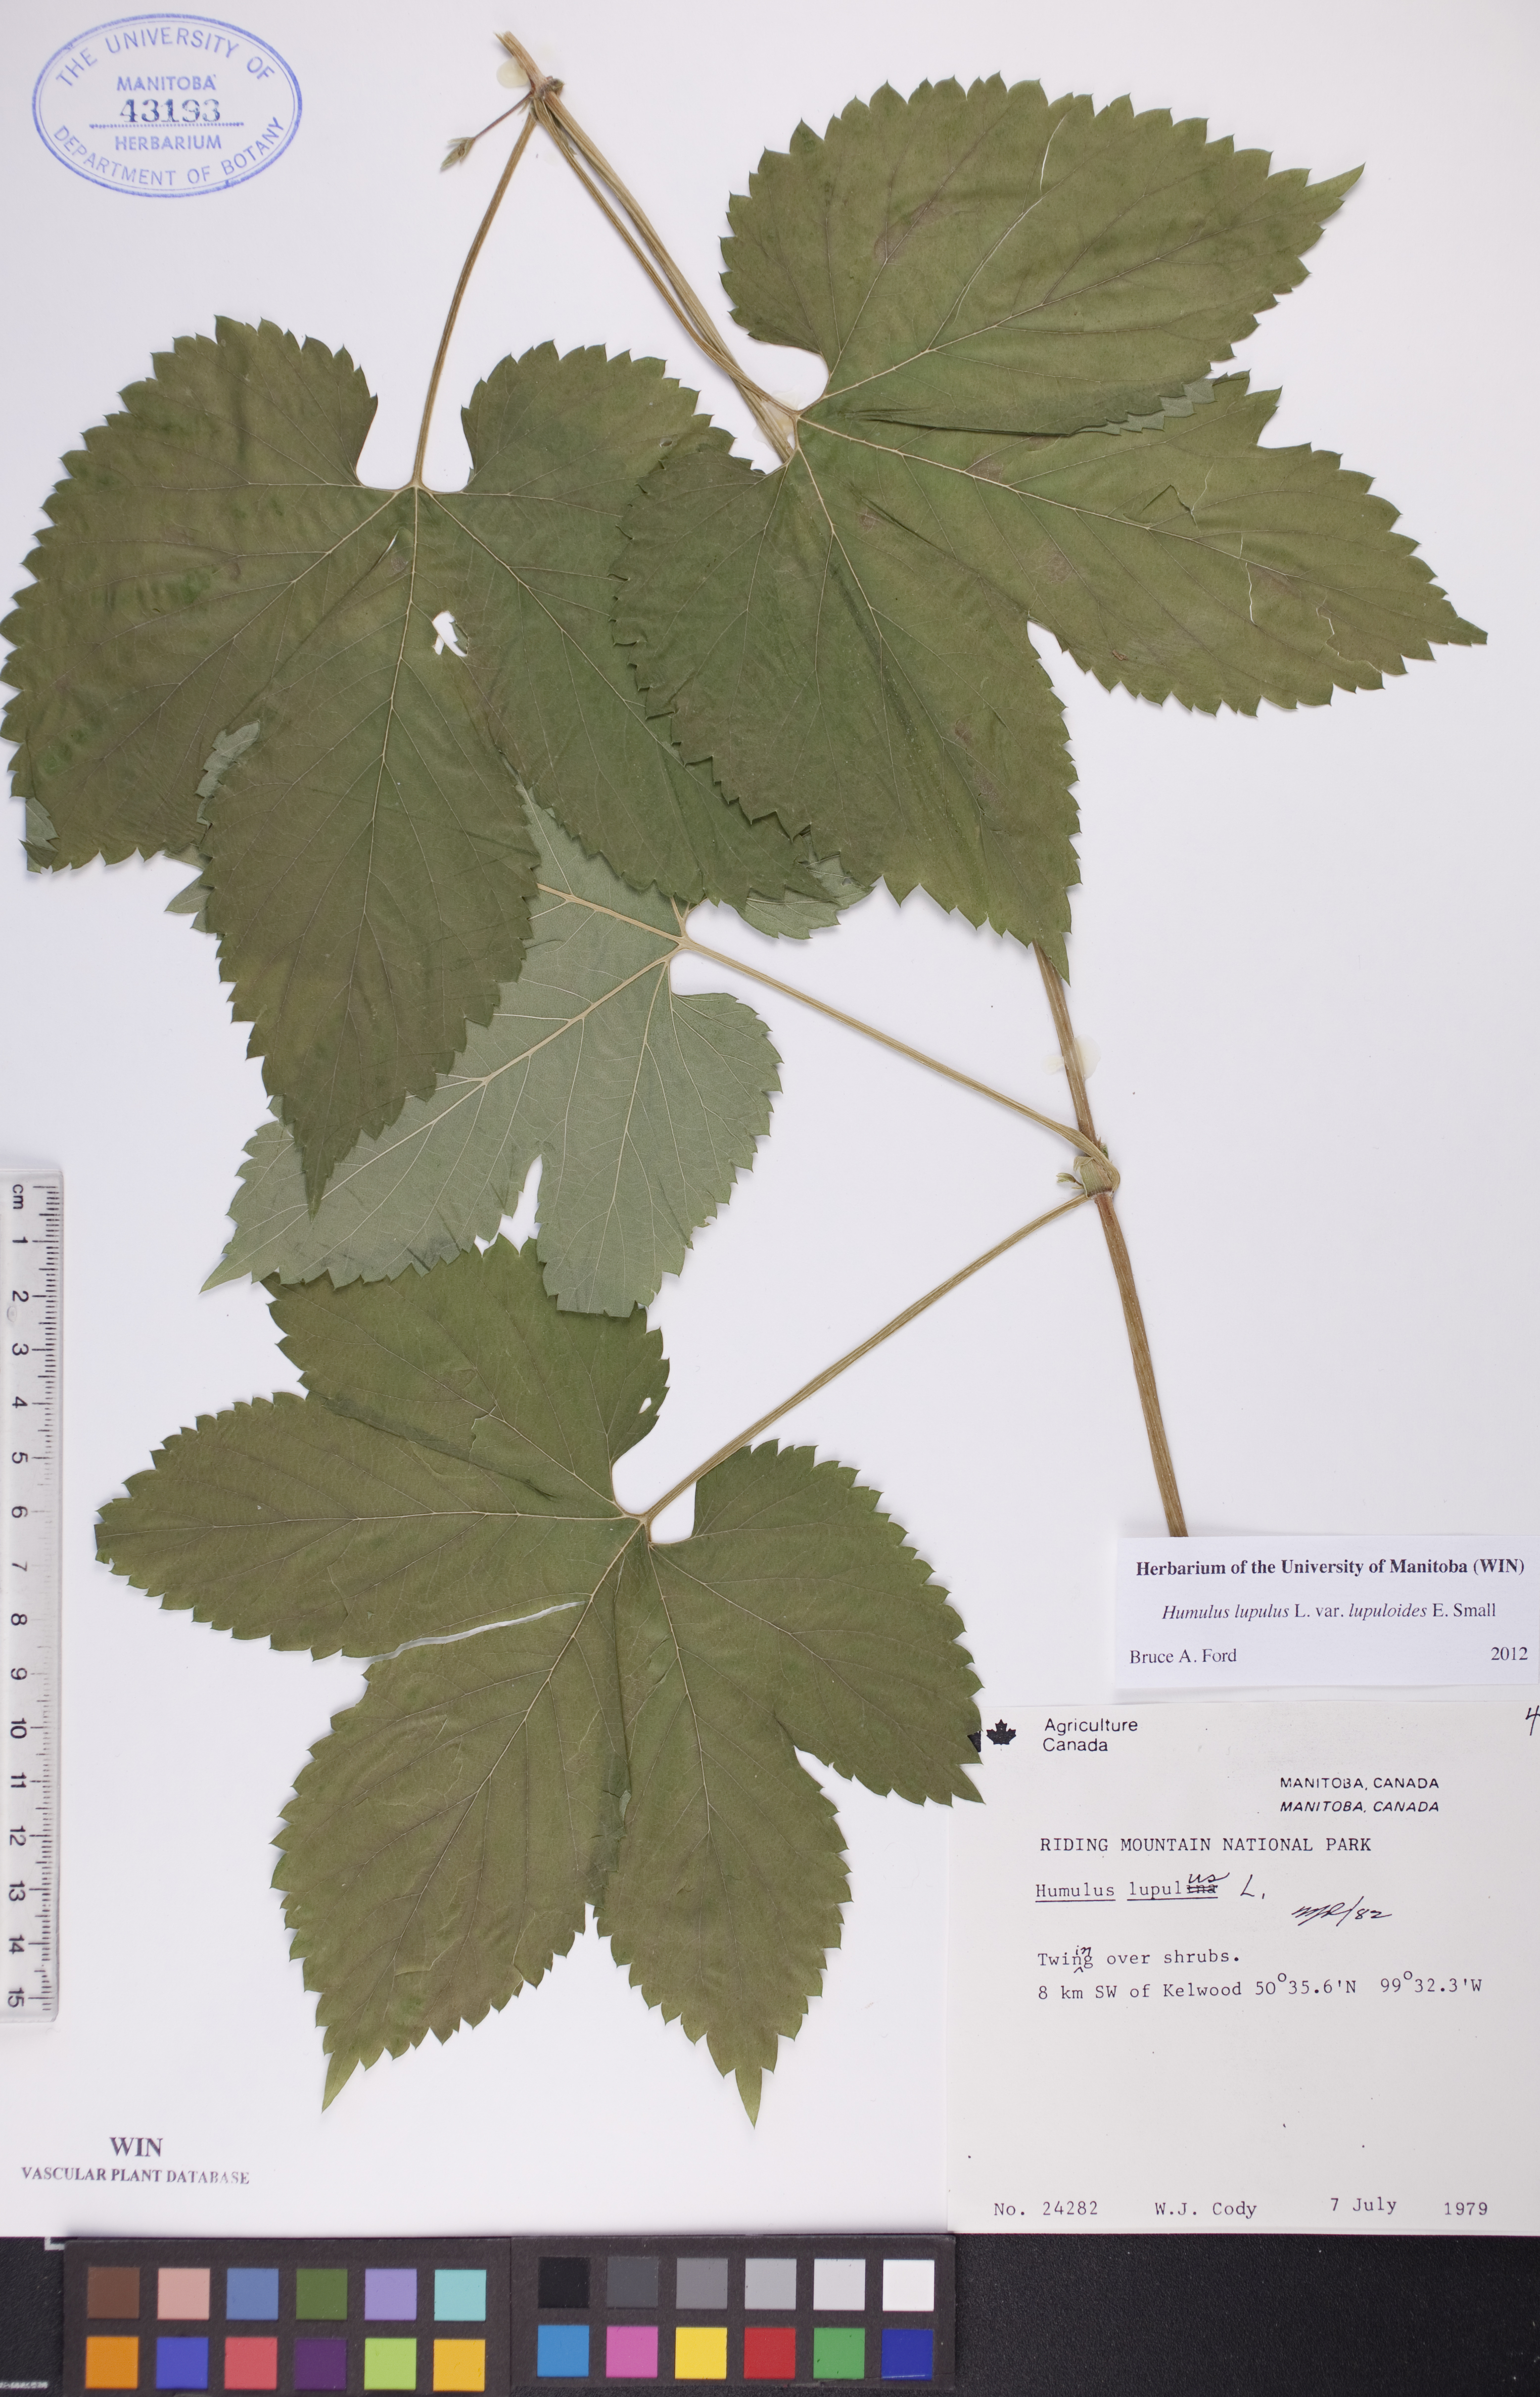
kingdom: Plantae
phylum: Tracheophyta
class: Magnoliopsida
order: Rosales
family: Cannabaceae
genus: Humulus
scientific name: Humulus americanus
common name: American hops
